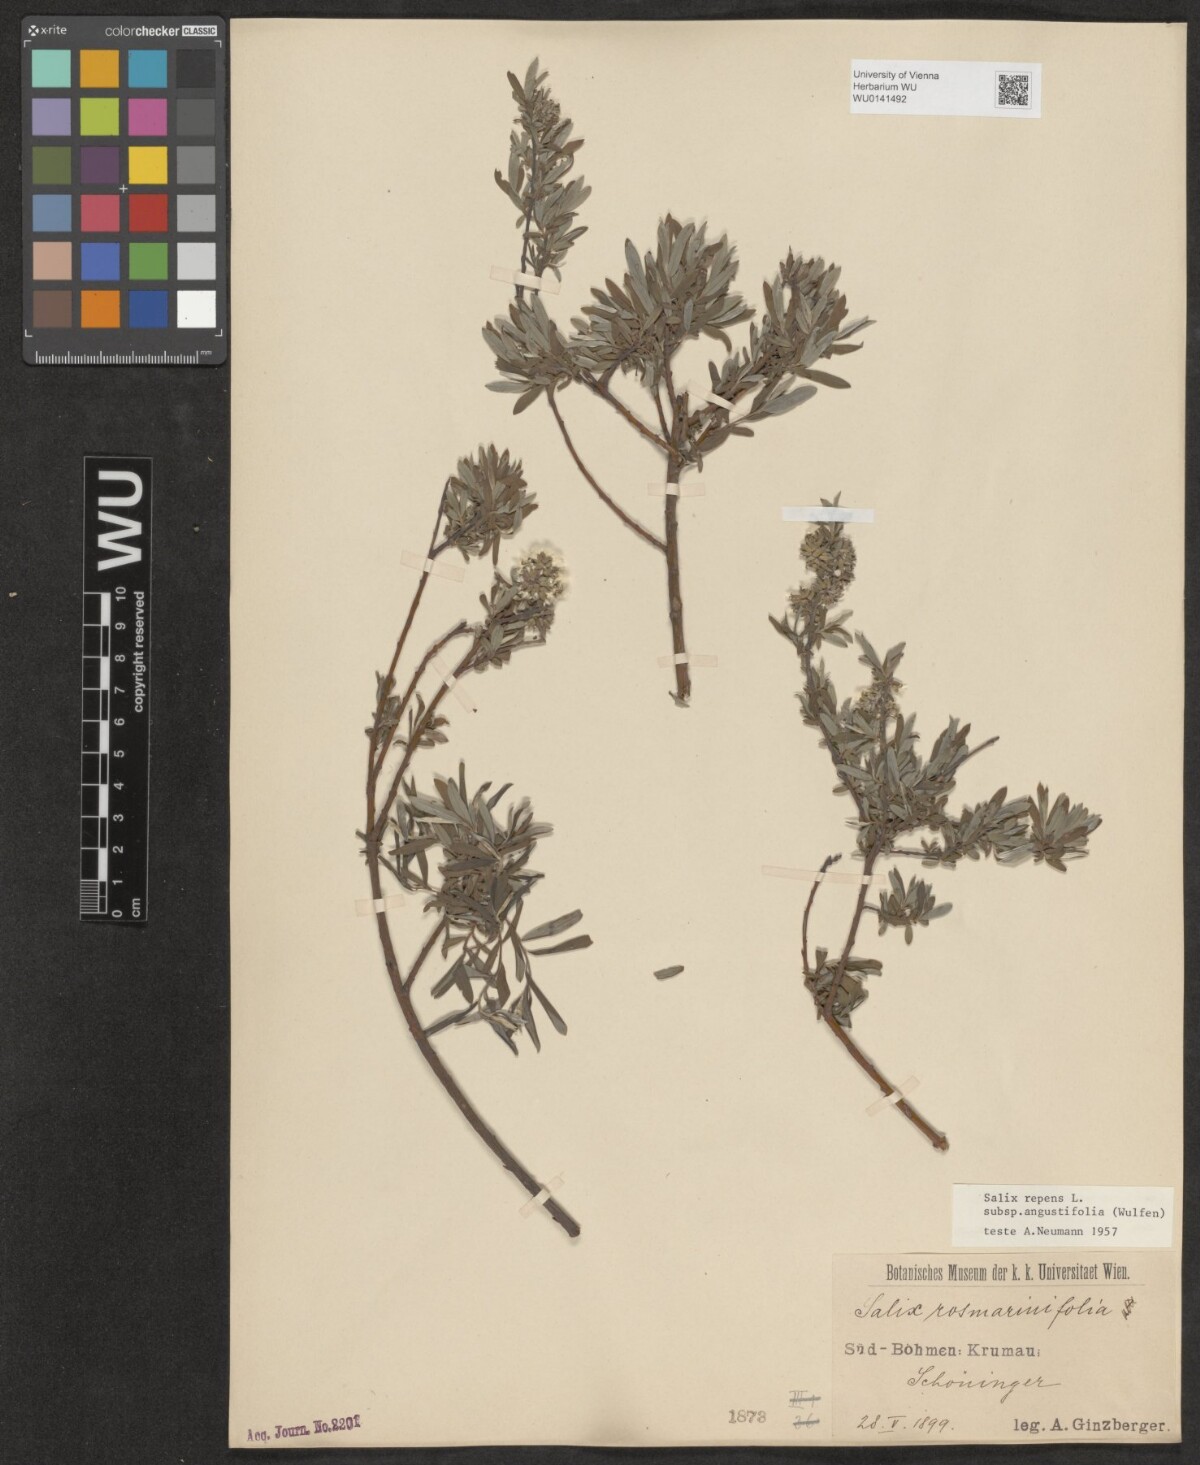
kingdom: Plantae
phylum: Tracheophyta
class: Magnoliopsida
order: Malpighiales
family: Salicaceae
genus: Salix
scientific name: Salix rosmarinifolia
